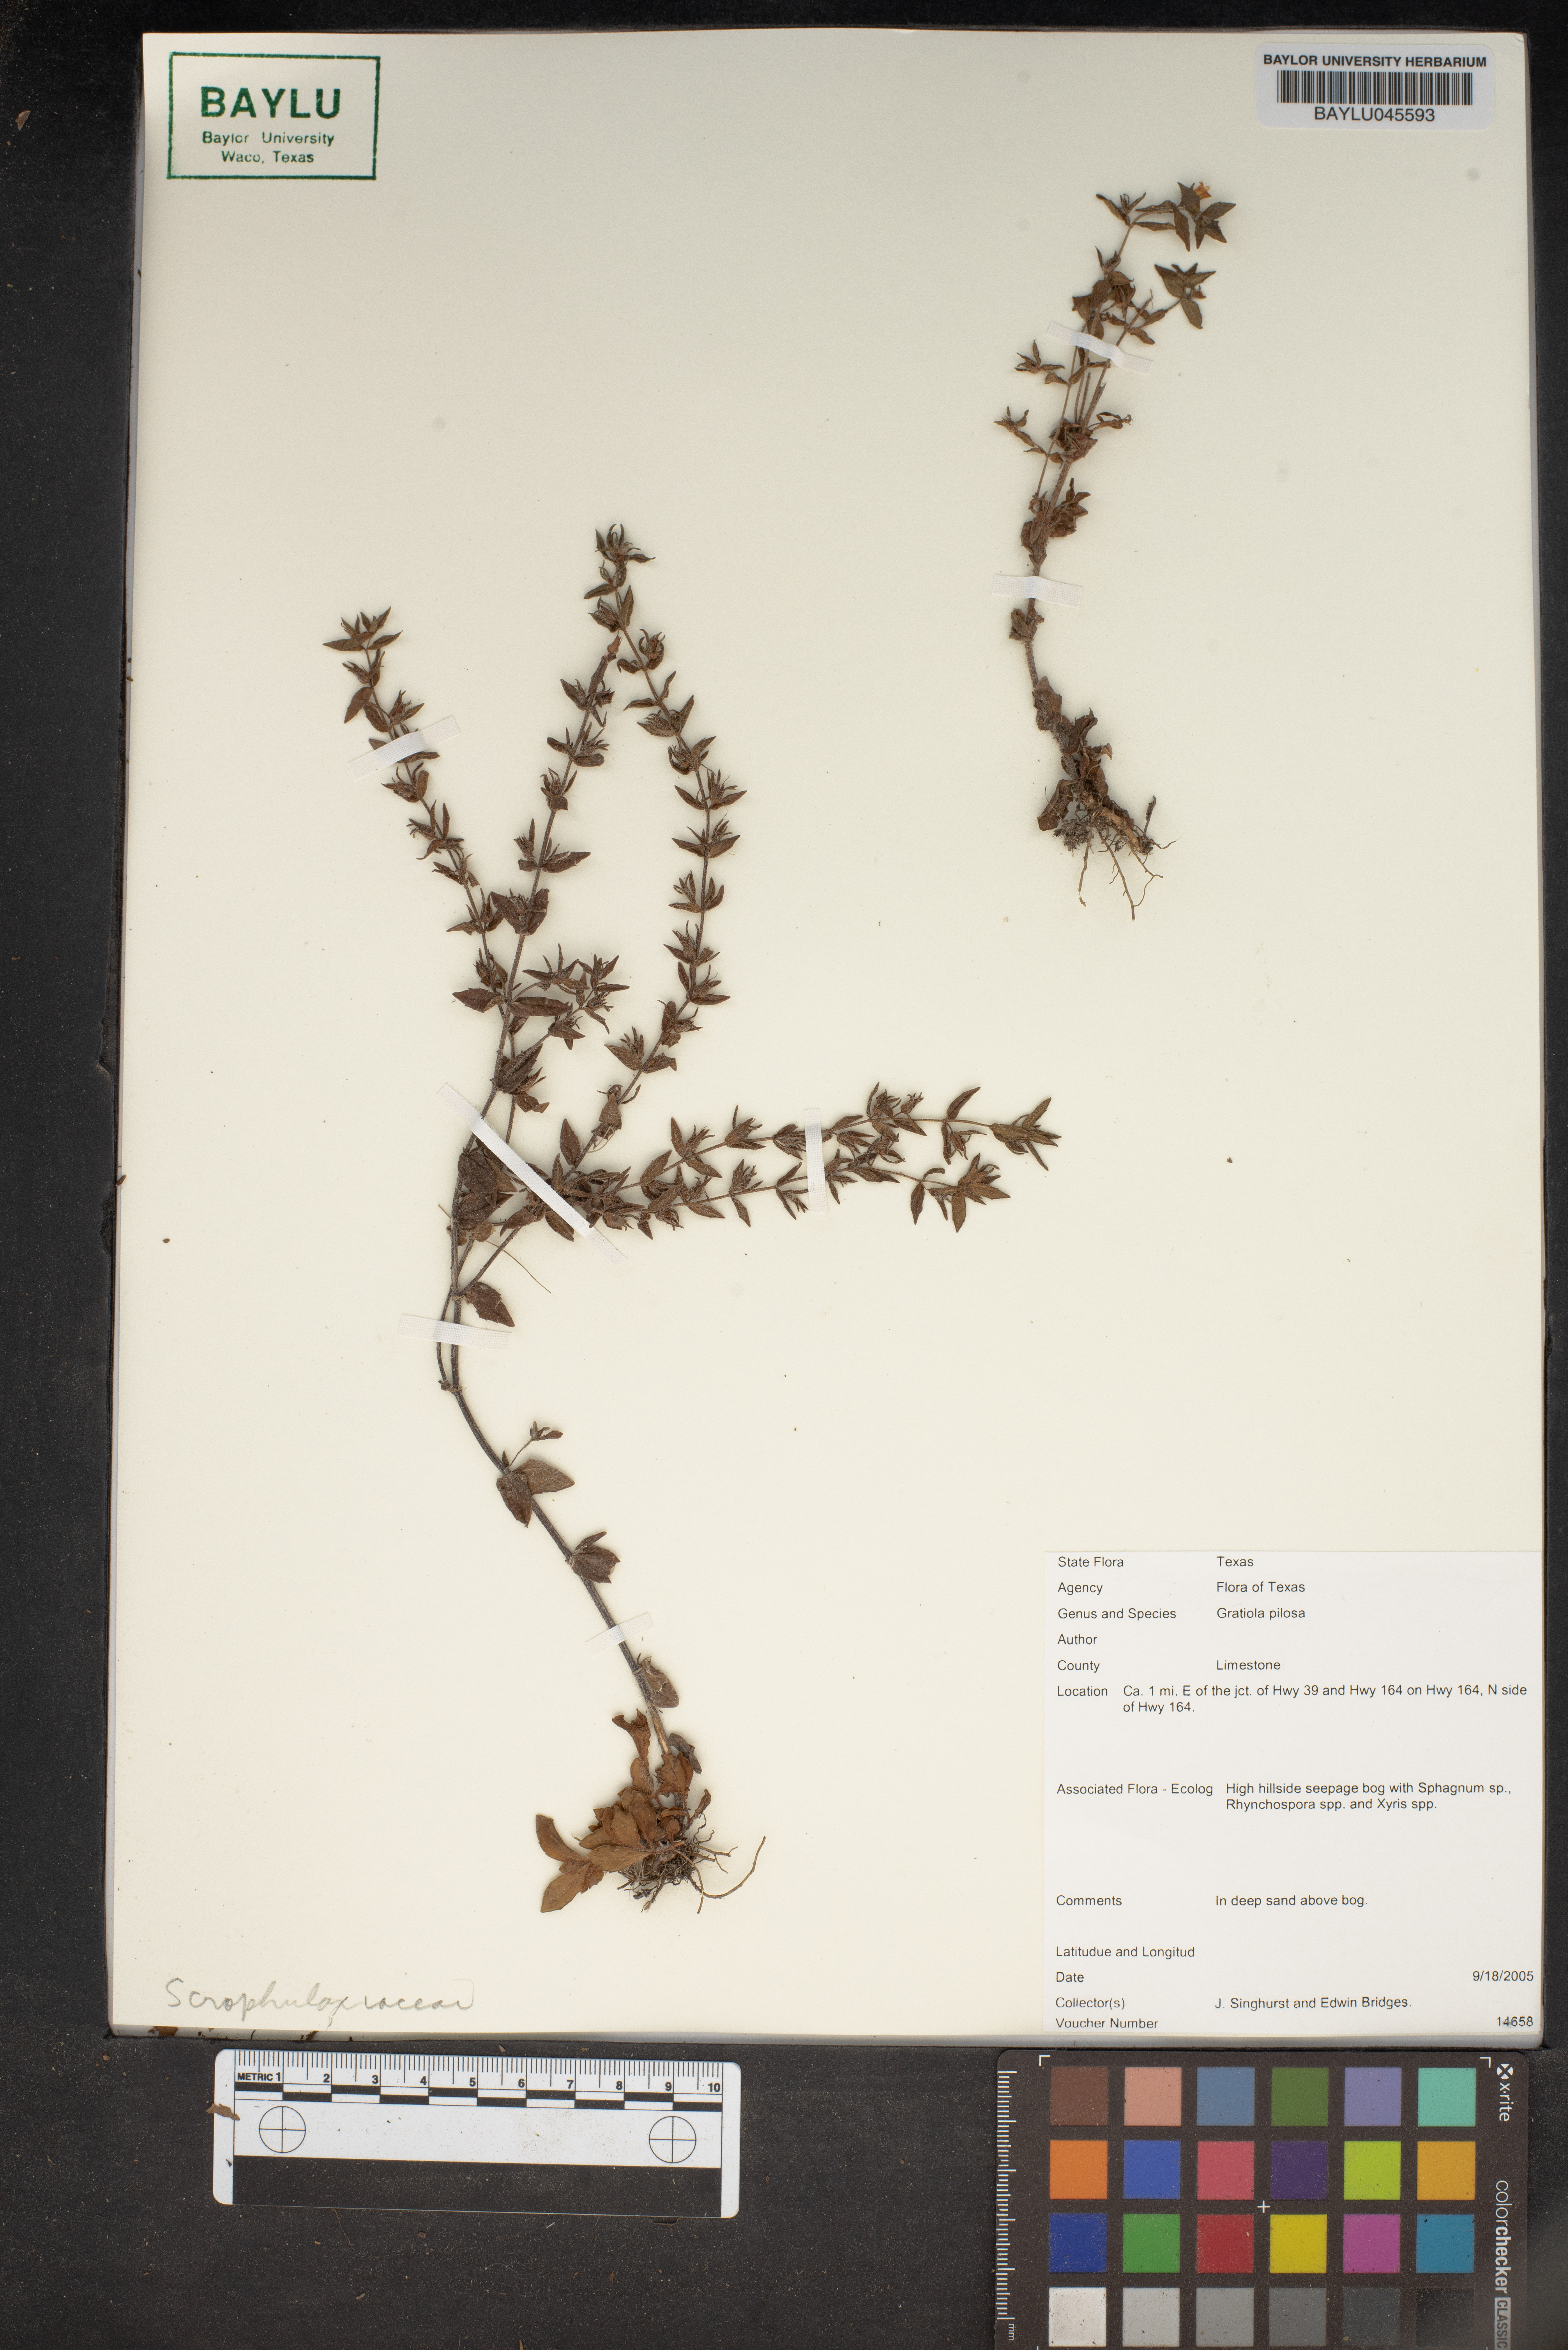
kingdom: Plantae
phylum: Tracheophyta
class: Magnoliopsida
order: Lamiales
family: Plantaginaceae
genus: Gratiola
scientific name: Gratiola pilosa
